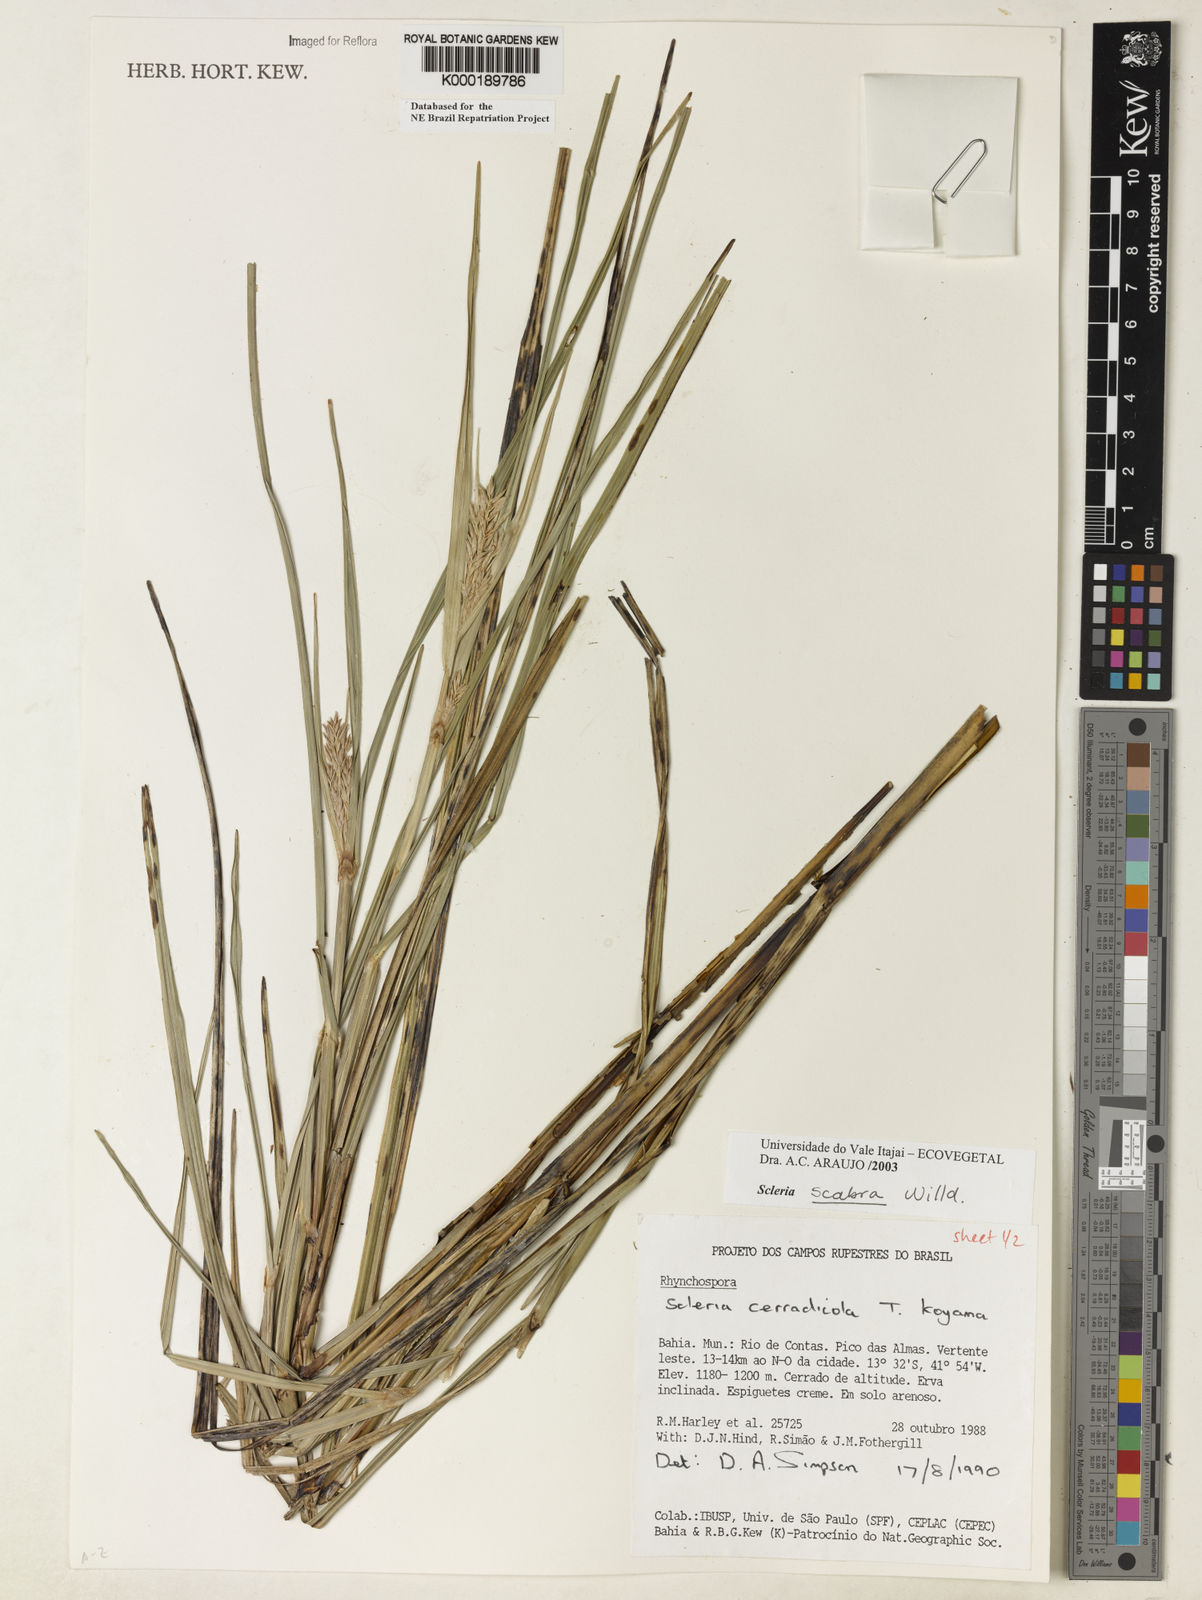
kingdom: Plantae
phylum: Tracheophyta
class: Liliopsida
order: Poales
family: Cyperaceae
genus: Scleria
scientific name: Scleria scabra
